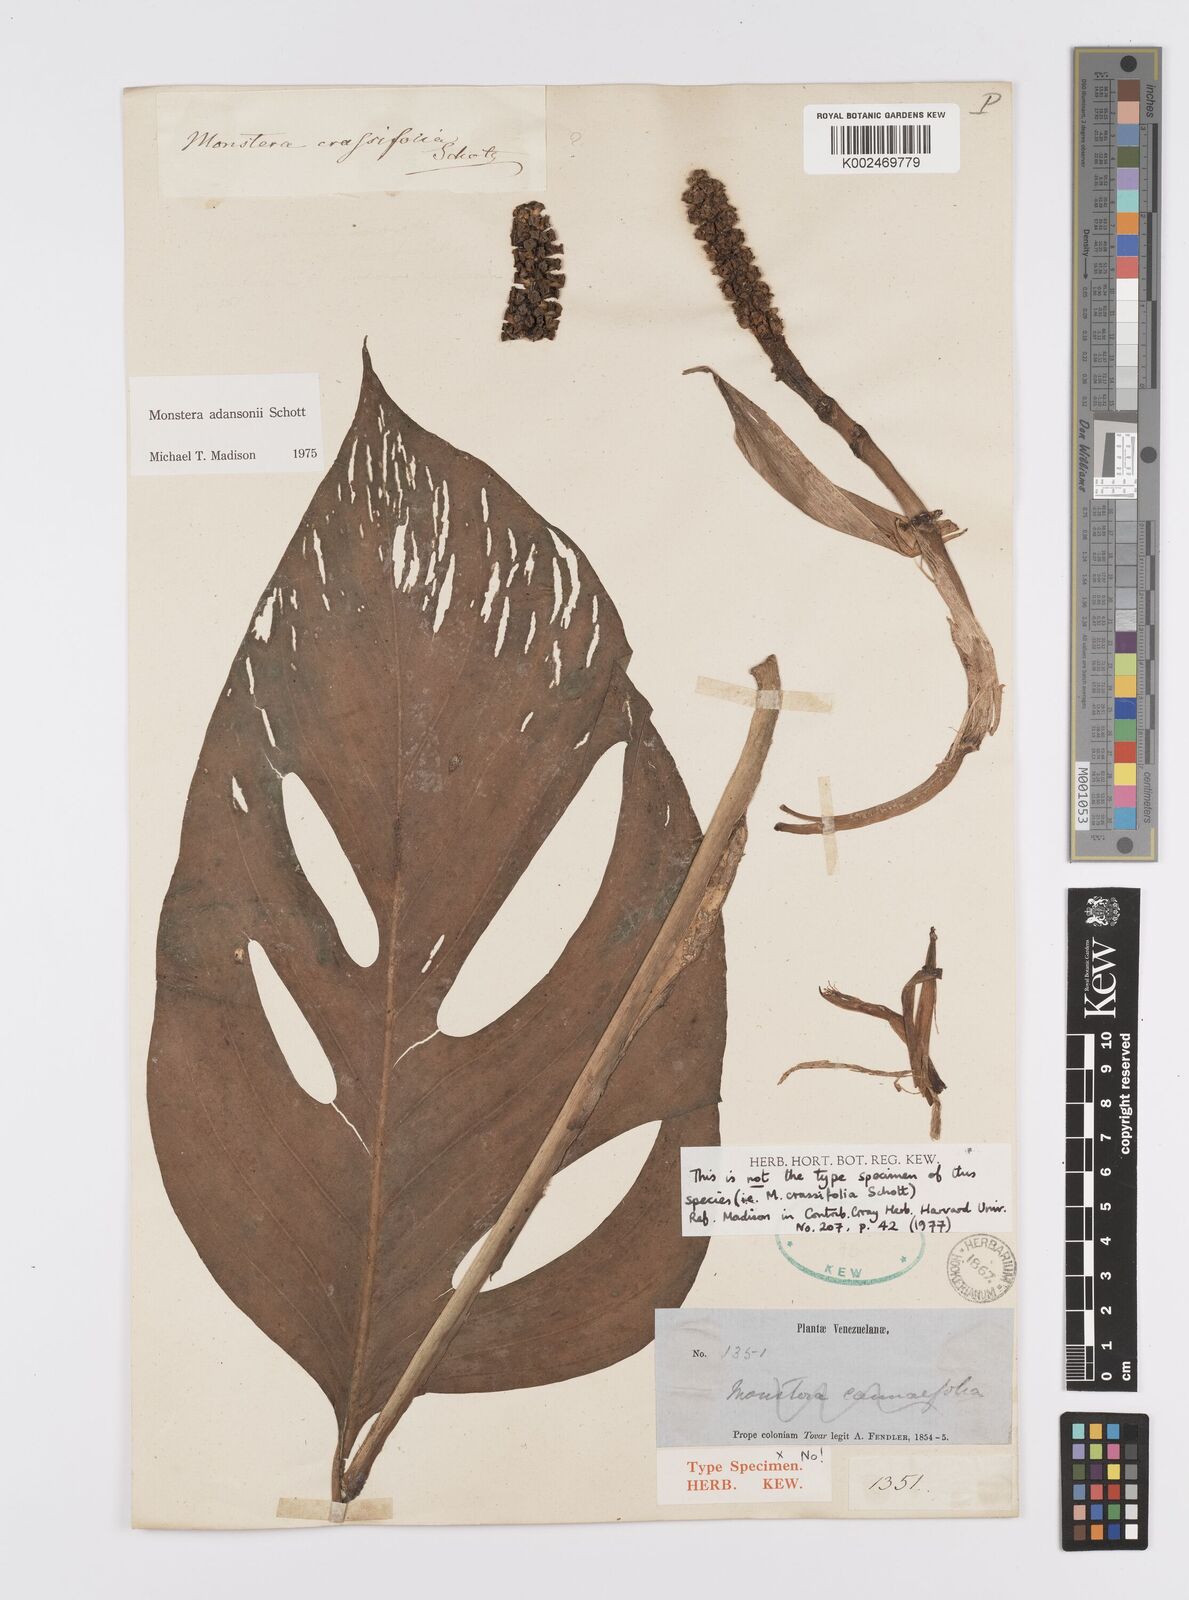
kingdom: Plantae
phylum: Tracheophyta
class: Liliopsida
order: Alismatales
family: Araceae
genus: Monstera
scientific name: Monstera adansonii
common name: Tarovine
